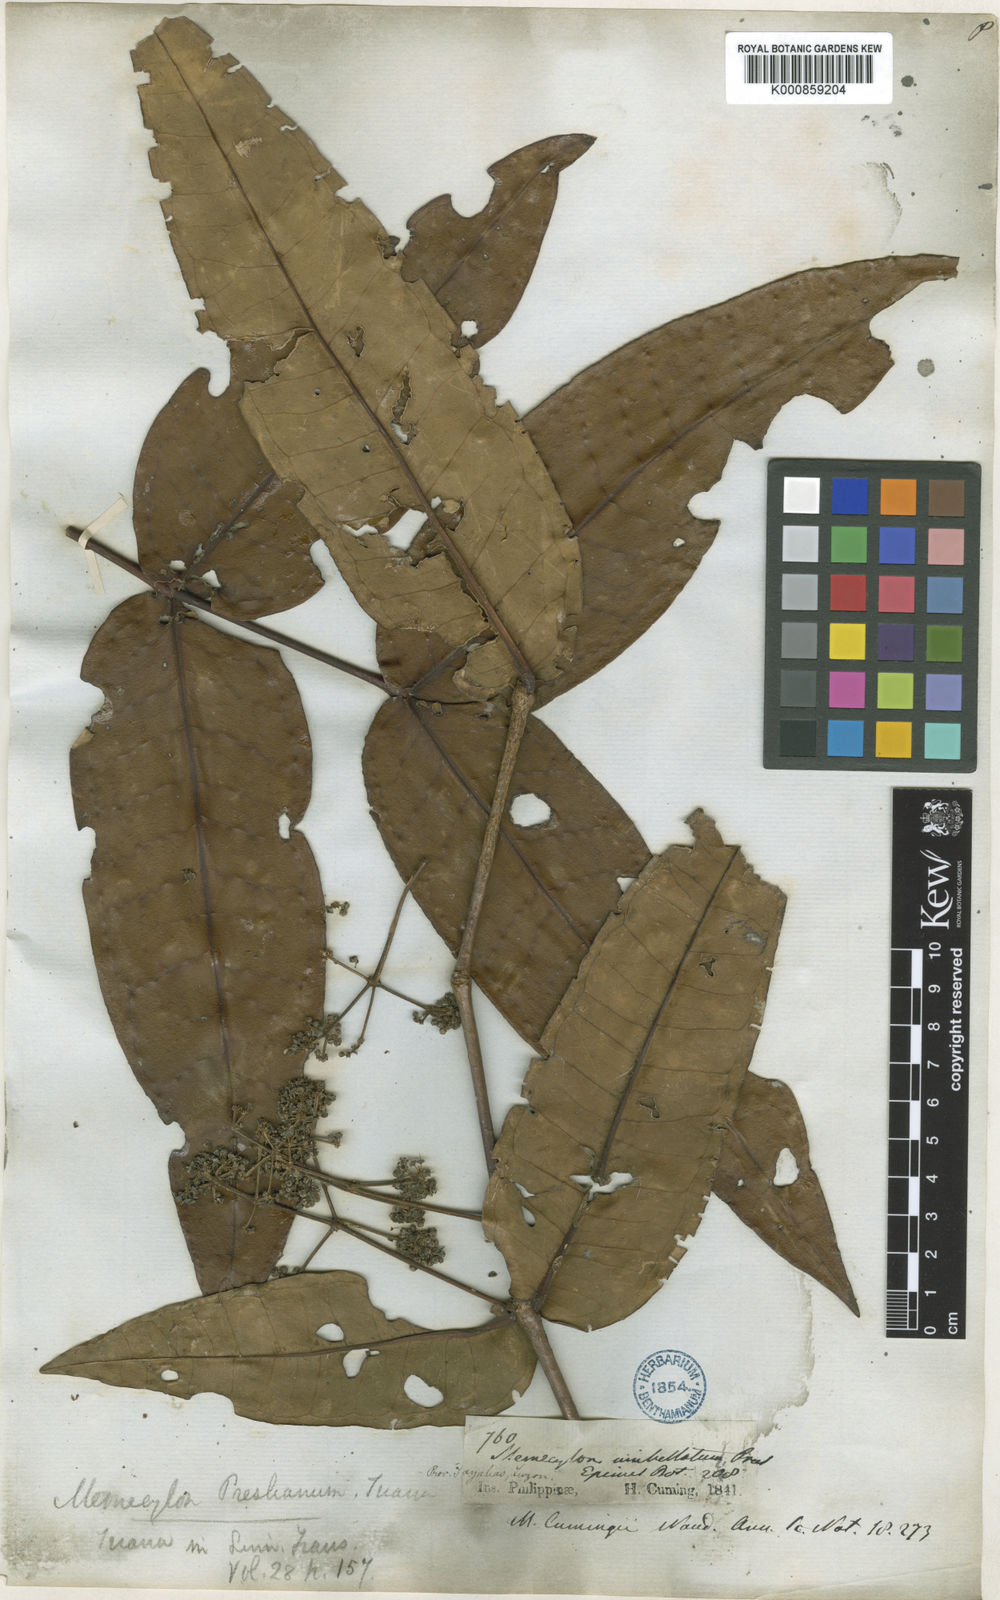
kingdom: Plantae
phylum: Tracheophyta
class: Magnoliopsida
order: Myrtales
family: Melastomataceae
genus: Memecylon
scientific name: Memecylon cumingii
